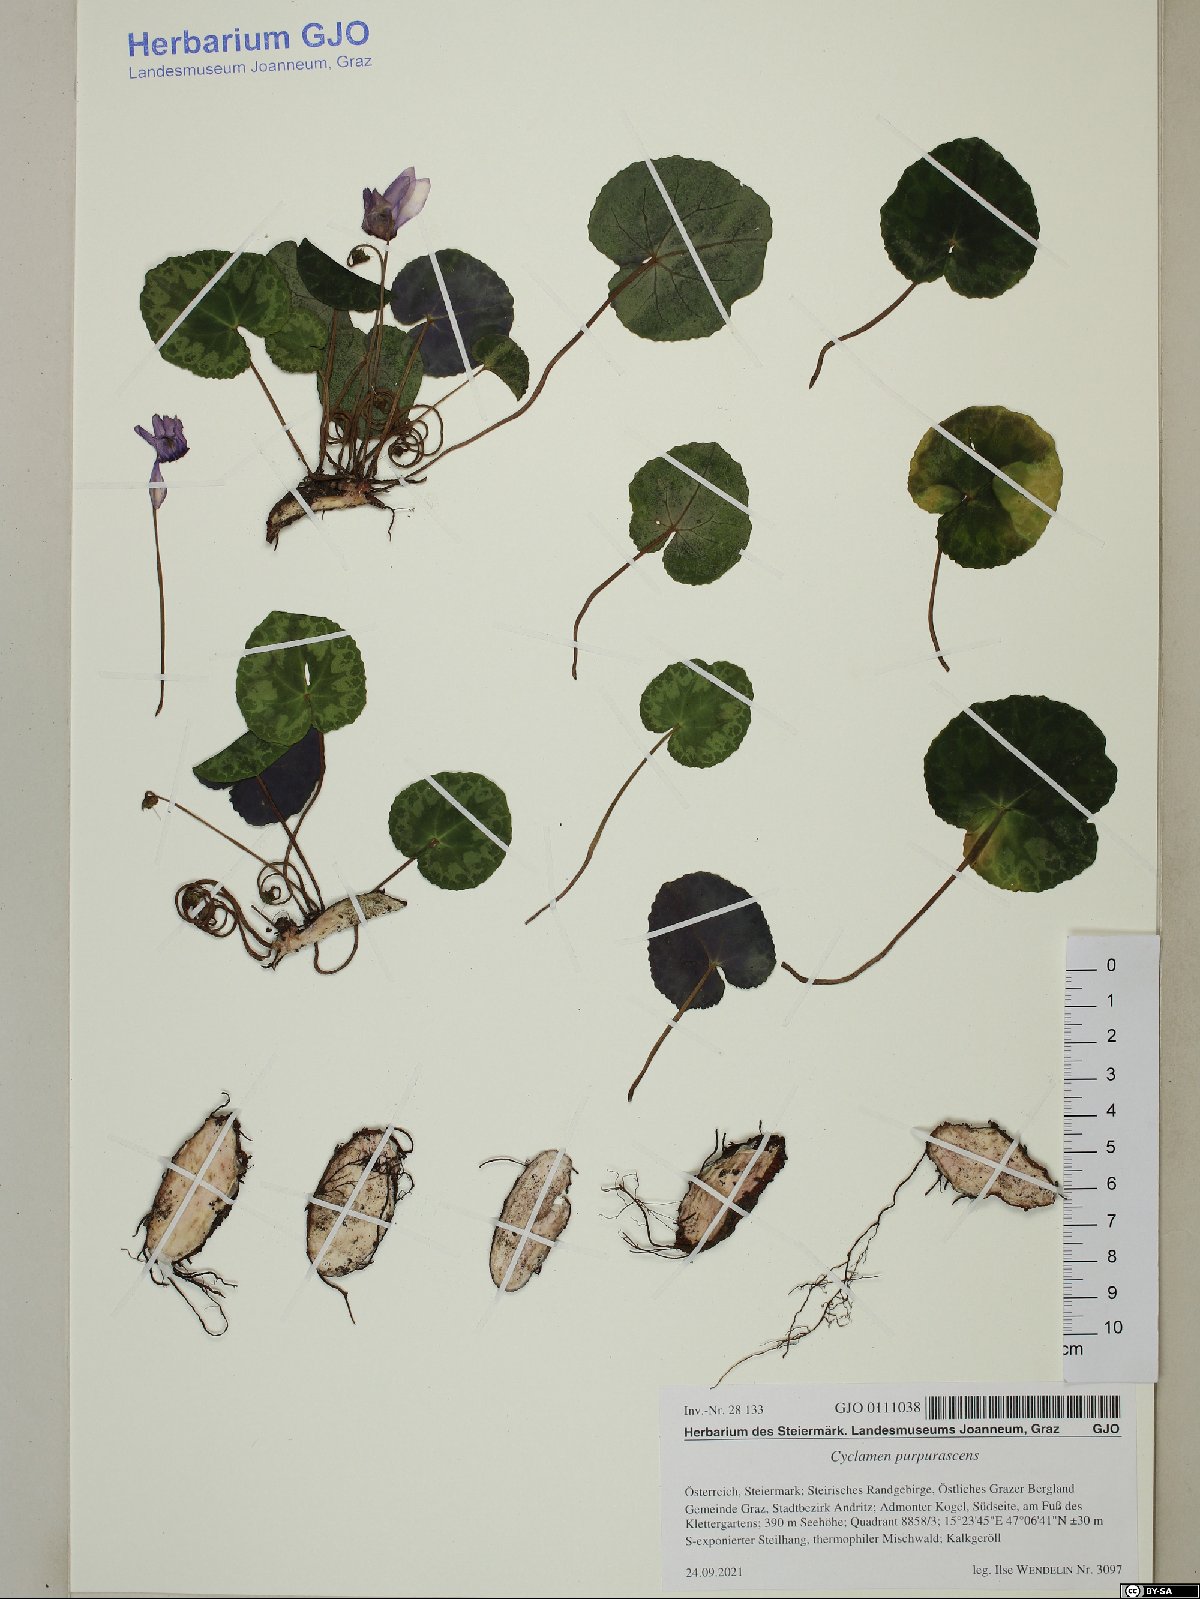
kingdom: Plantae
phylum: Tracheophyta
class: Magnoliopsida
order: Ericales
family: Primulaceae
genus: Cyclamen
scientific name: Cyclamen purpurascens
